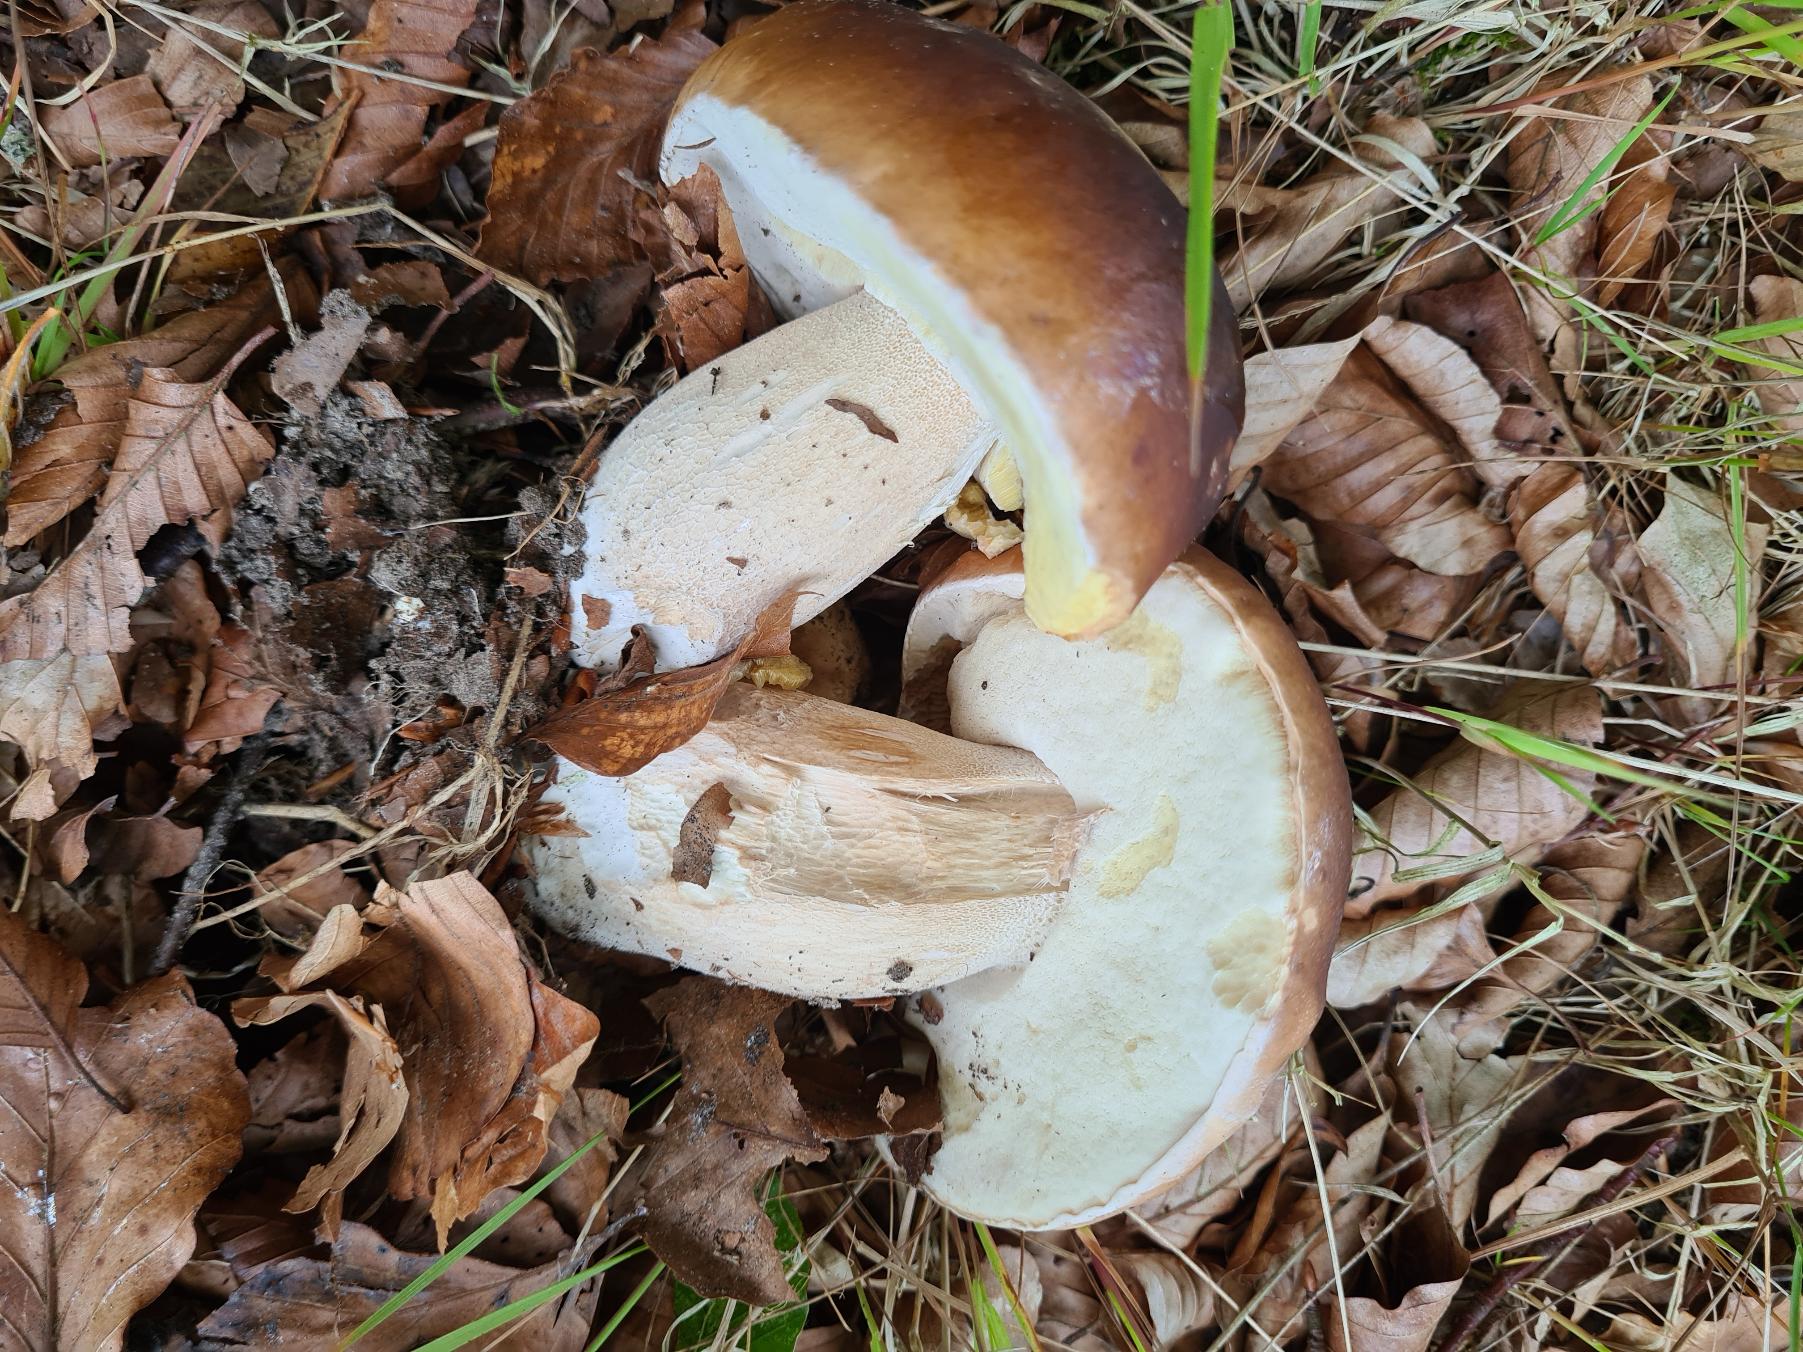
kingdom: Fungi
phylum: Basidiomycota
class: Agaricomycetes
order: Boletales
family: Boletaceae
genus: Boletus
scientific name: Boletus edulis
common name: Spiselig rørhat/karl johan
